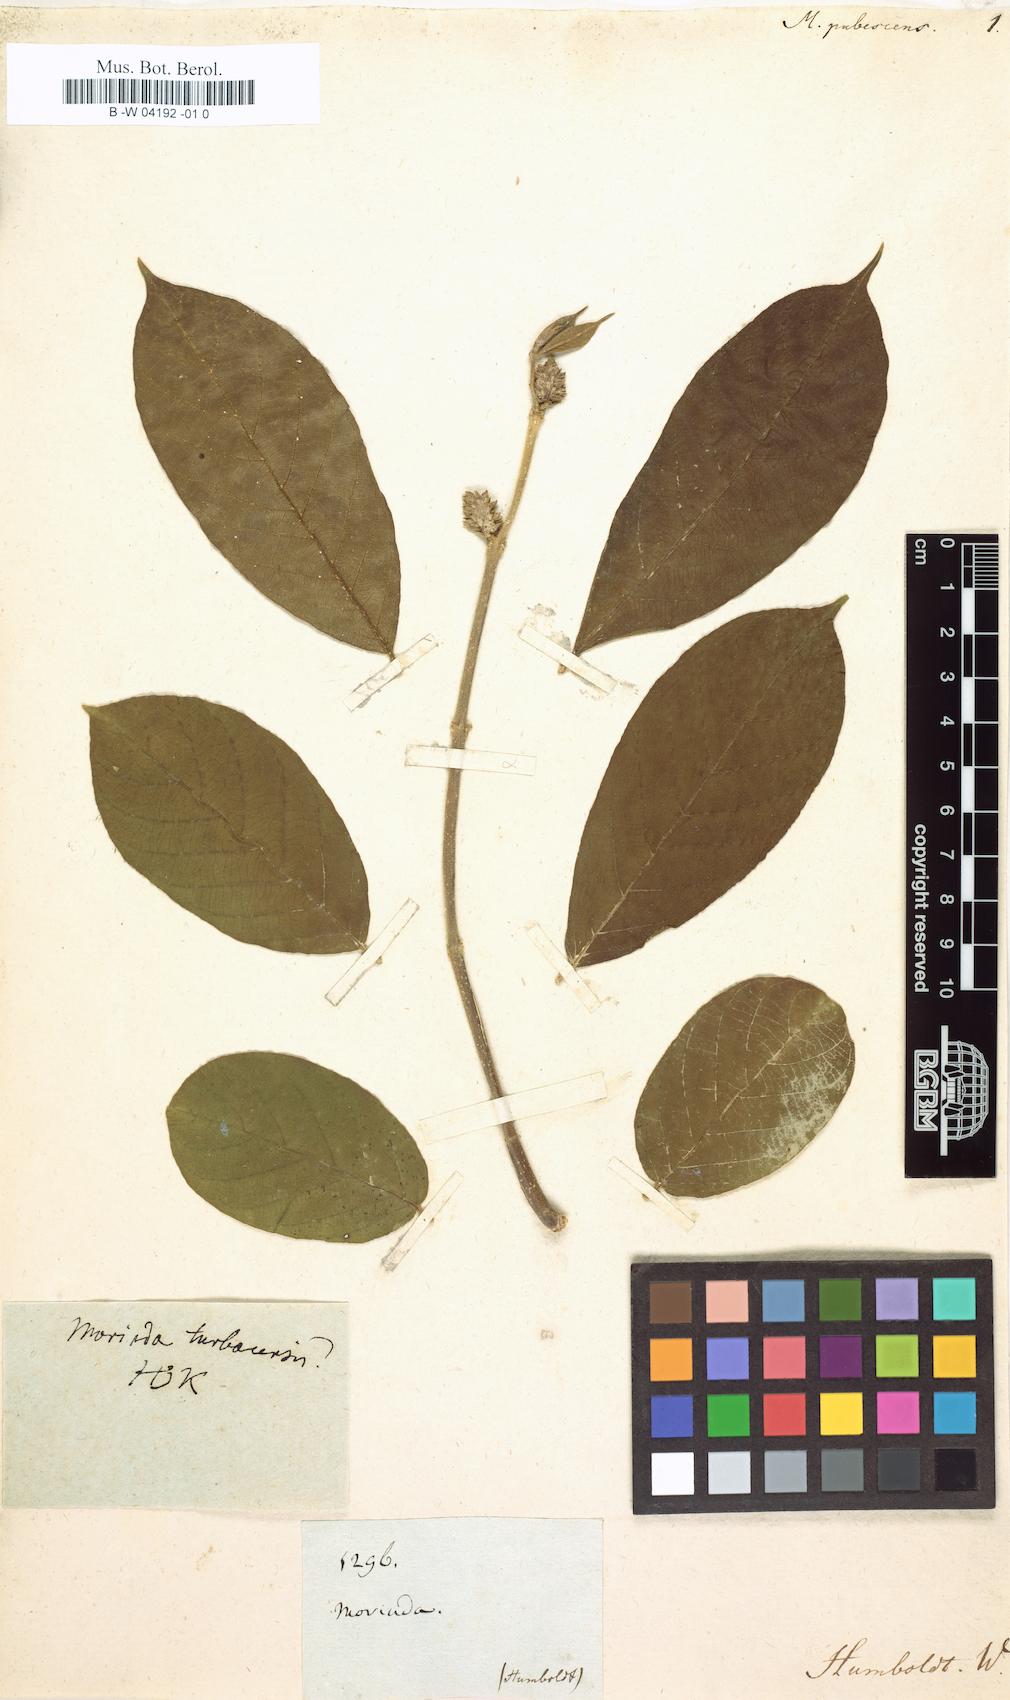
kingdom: Plantae
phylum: Tracheophyta
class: Magnoliopsida
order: Gentianales
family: Rubiaceae
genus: Morinda
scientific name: Morinda coreia
